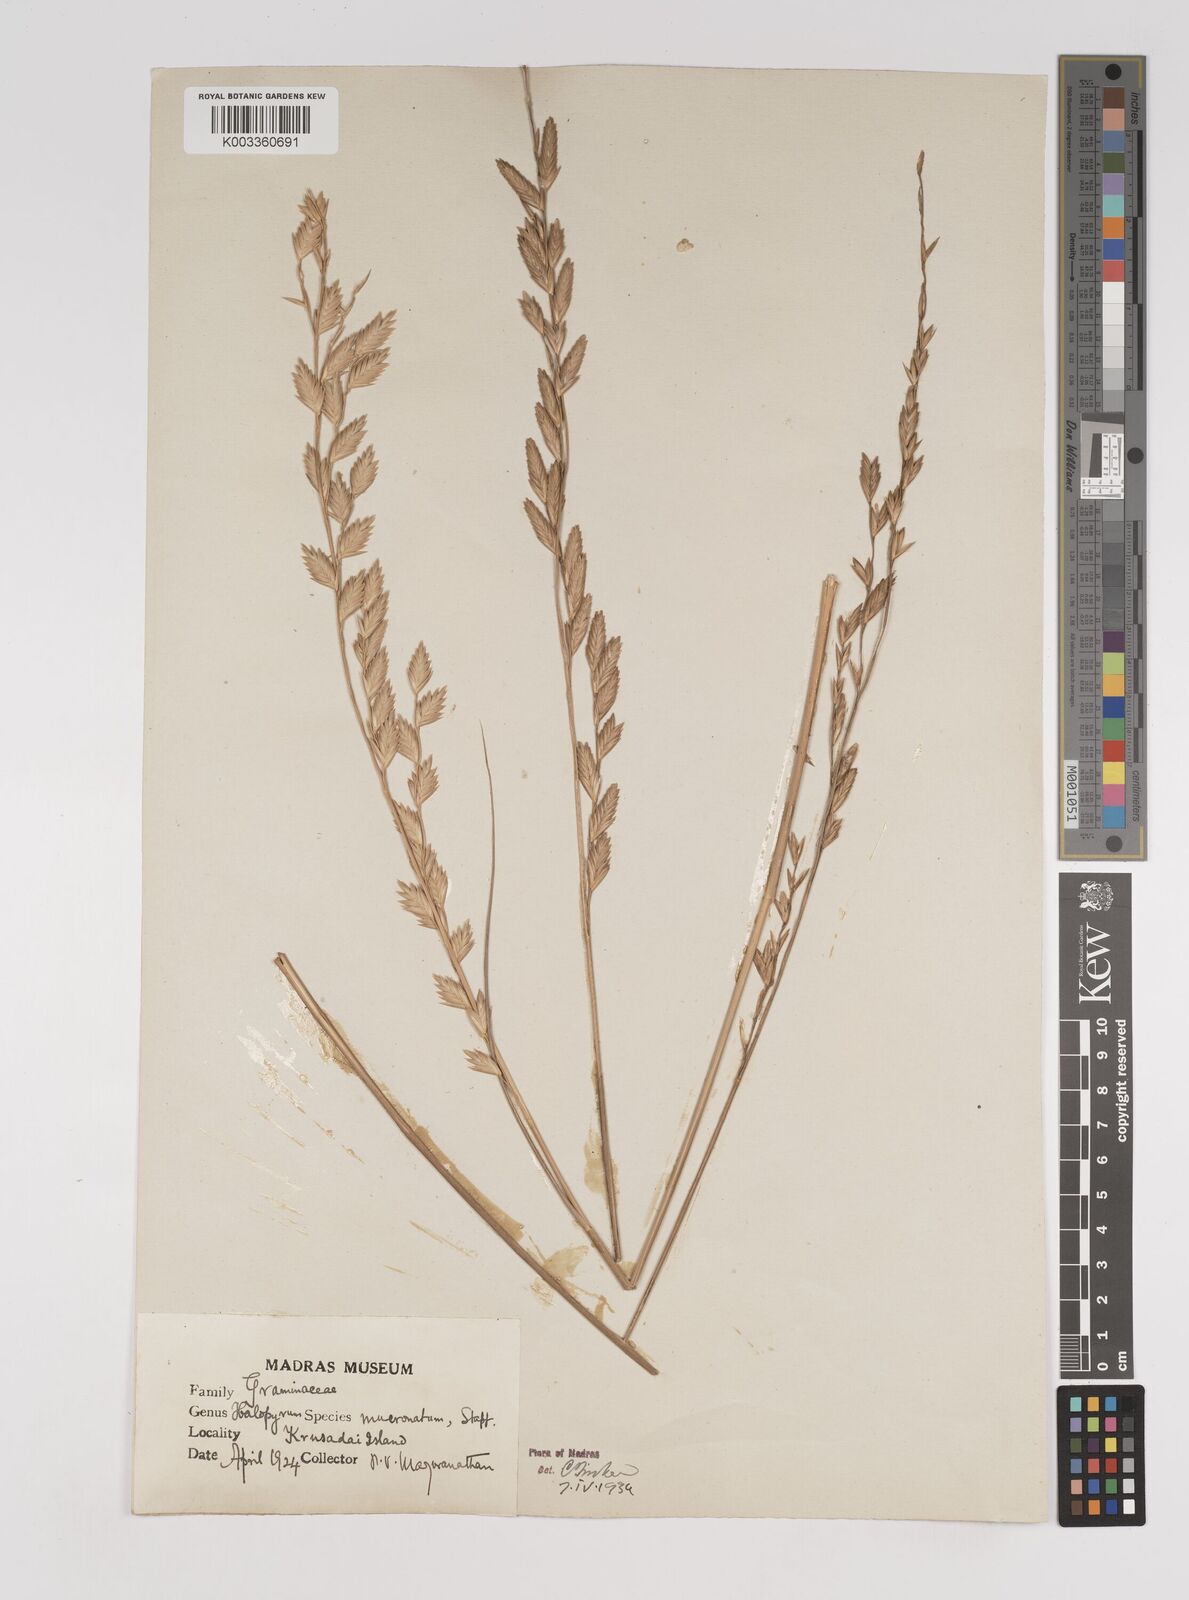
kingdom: Plantae
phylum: Tracheophyta
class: Liliopsida
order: Poales
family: Poaceae
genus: Halopyrum
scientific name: Halopyrum mucronatum
